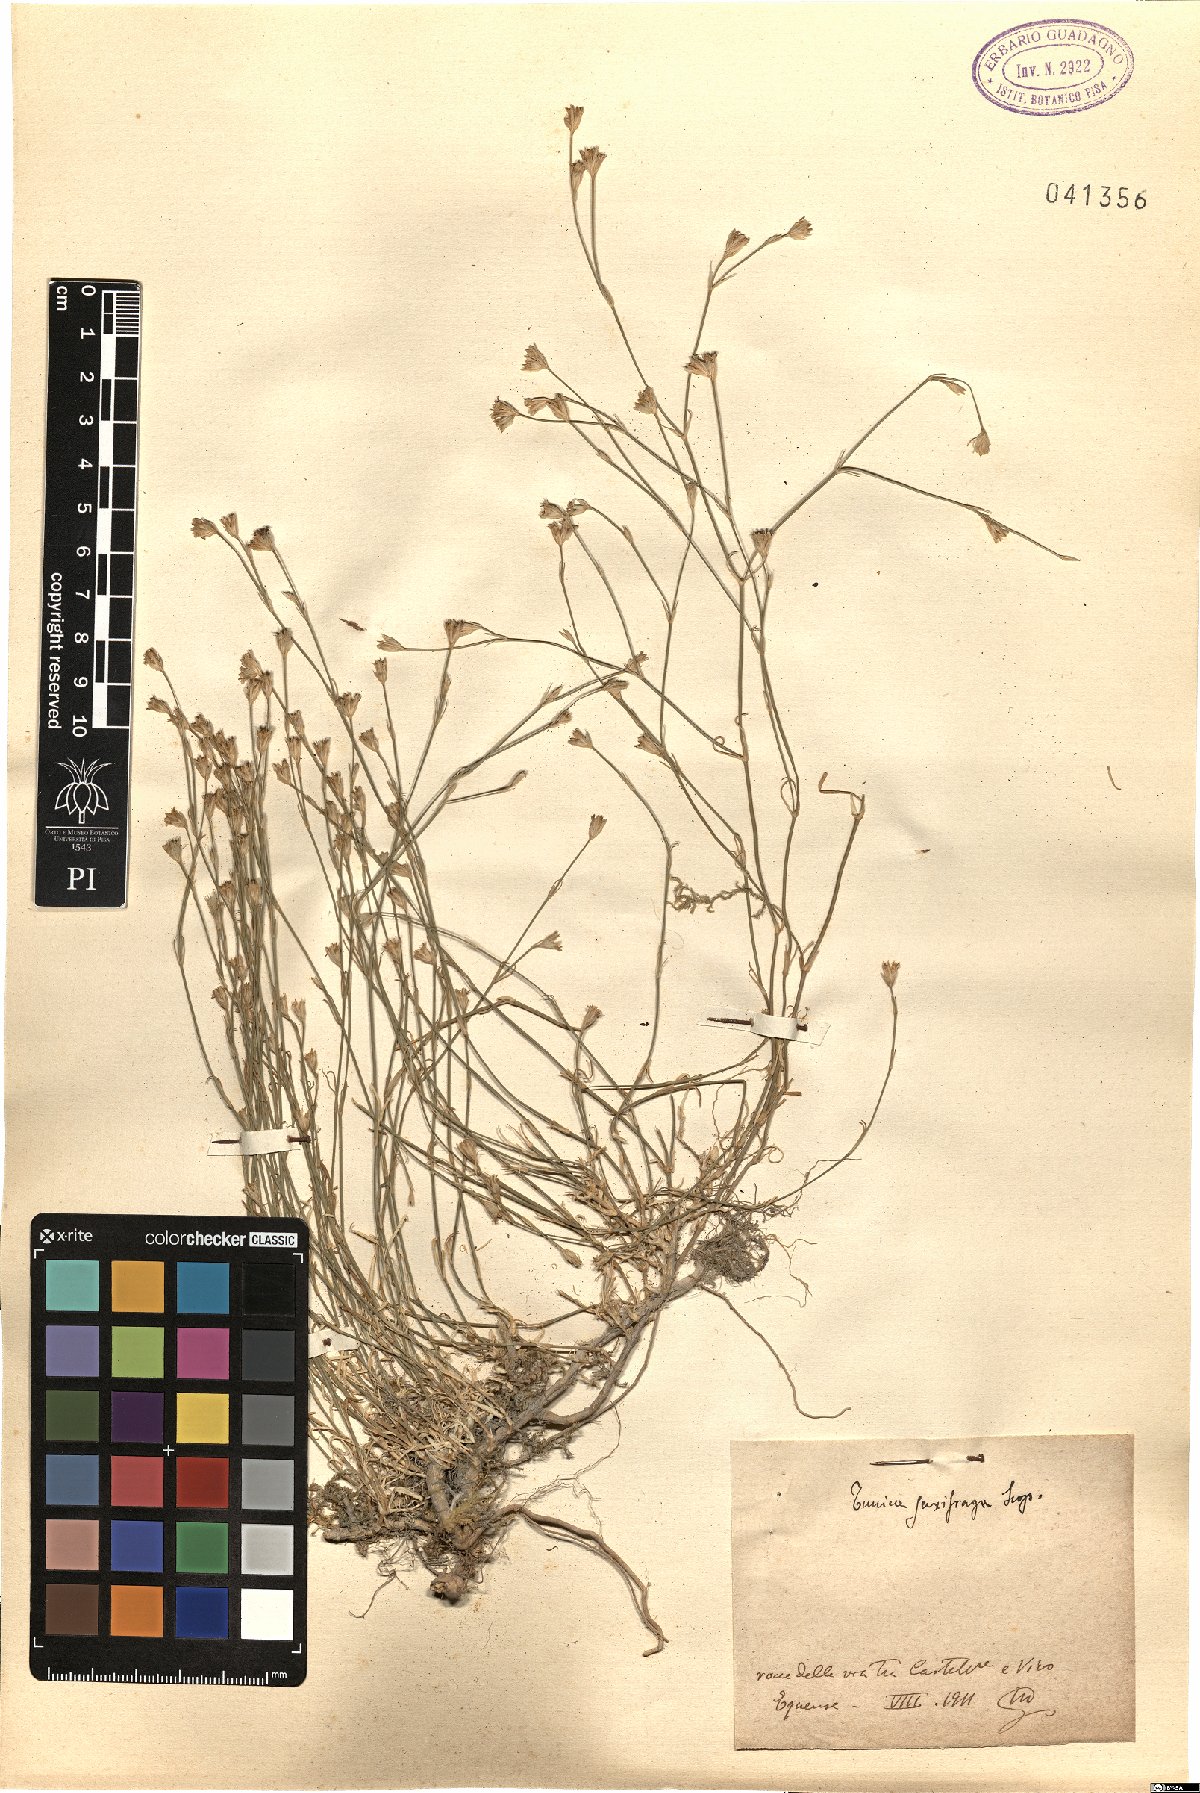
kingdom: Plantae
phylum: Tracheophyta
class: Magnoliopsida
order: Caryophyllales
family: Caryophyllaceae
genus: Petrorhagia
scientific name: Petrorhagia saxifraga
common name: Tunicflower
